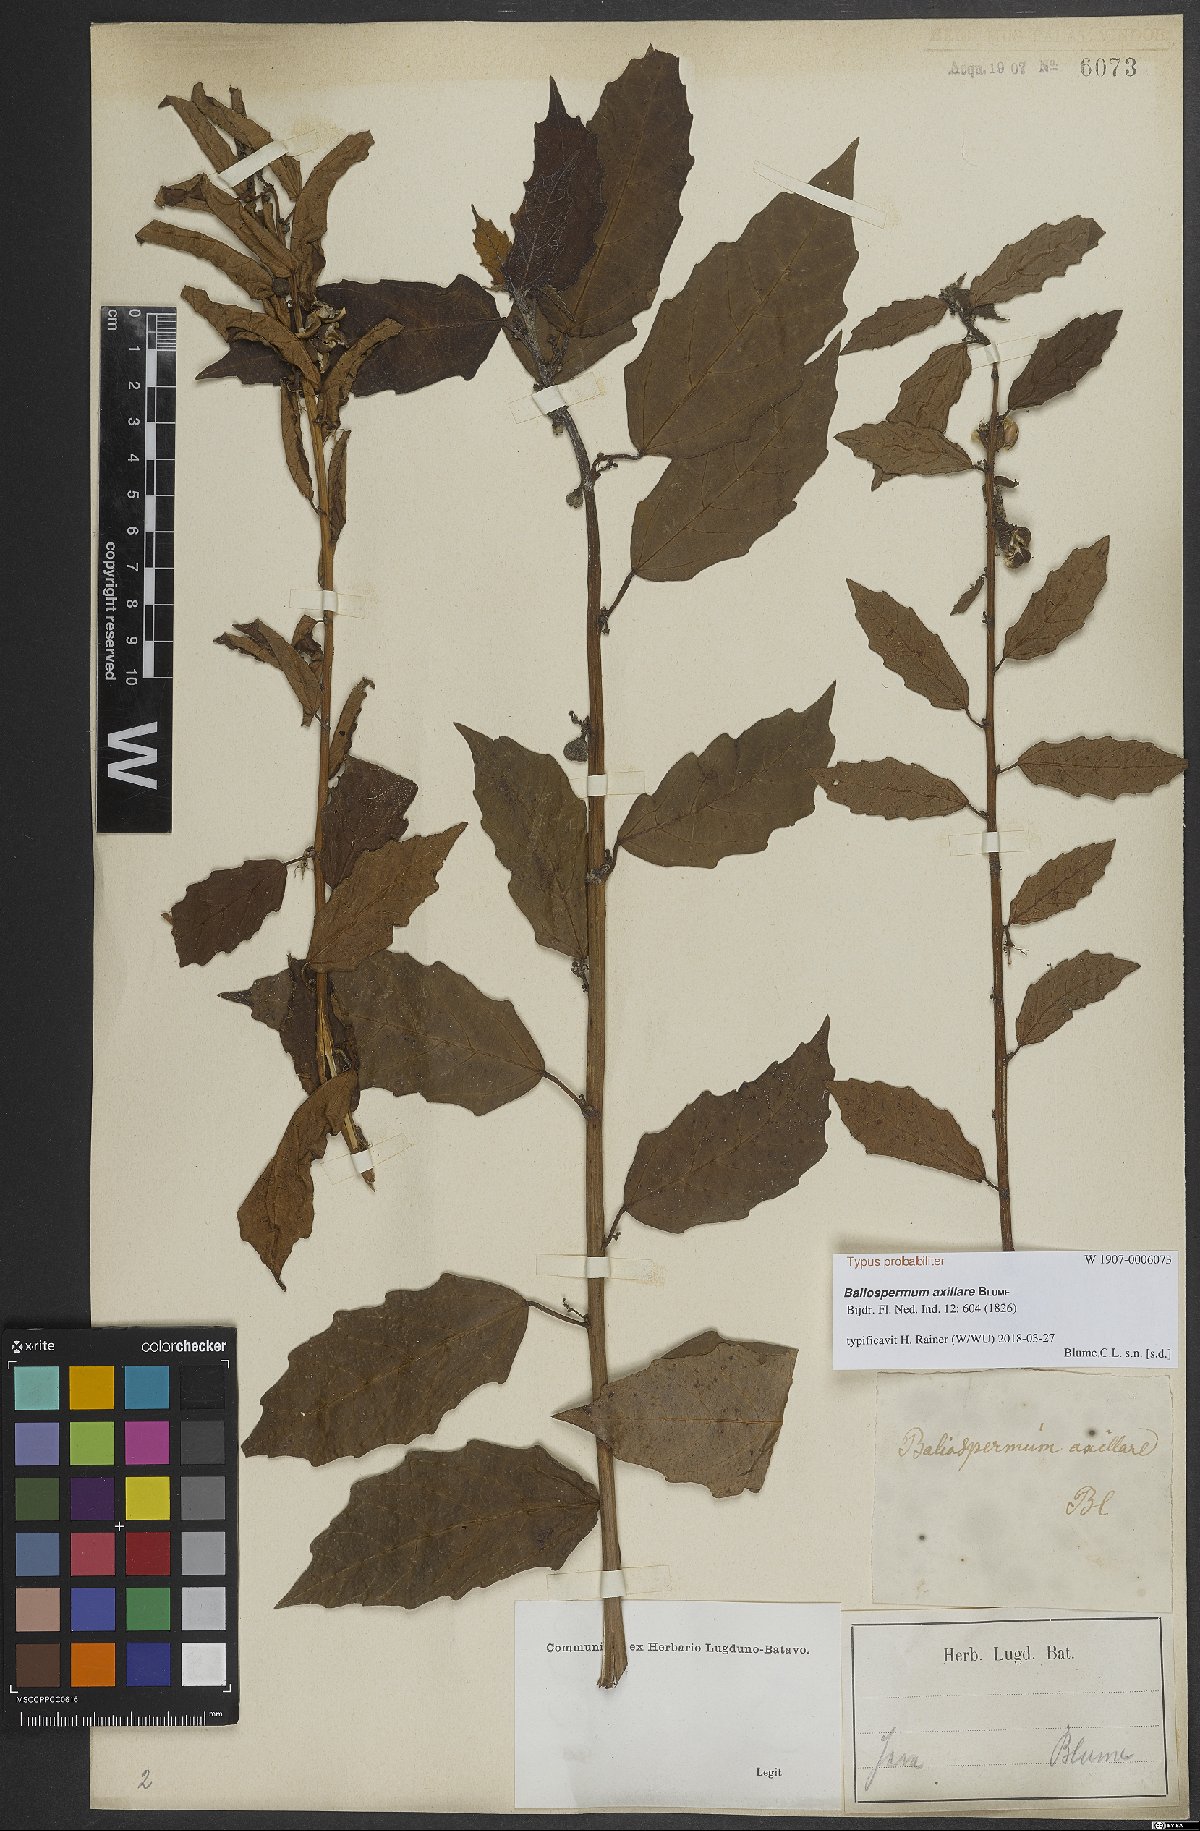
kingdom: Plantae
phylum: Tracheophyta
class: Magnoliopsida
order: Malpighiales
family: Euphorbiaceae
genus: Baliospermum
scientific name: Baliospermum solanifolium
